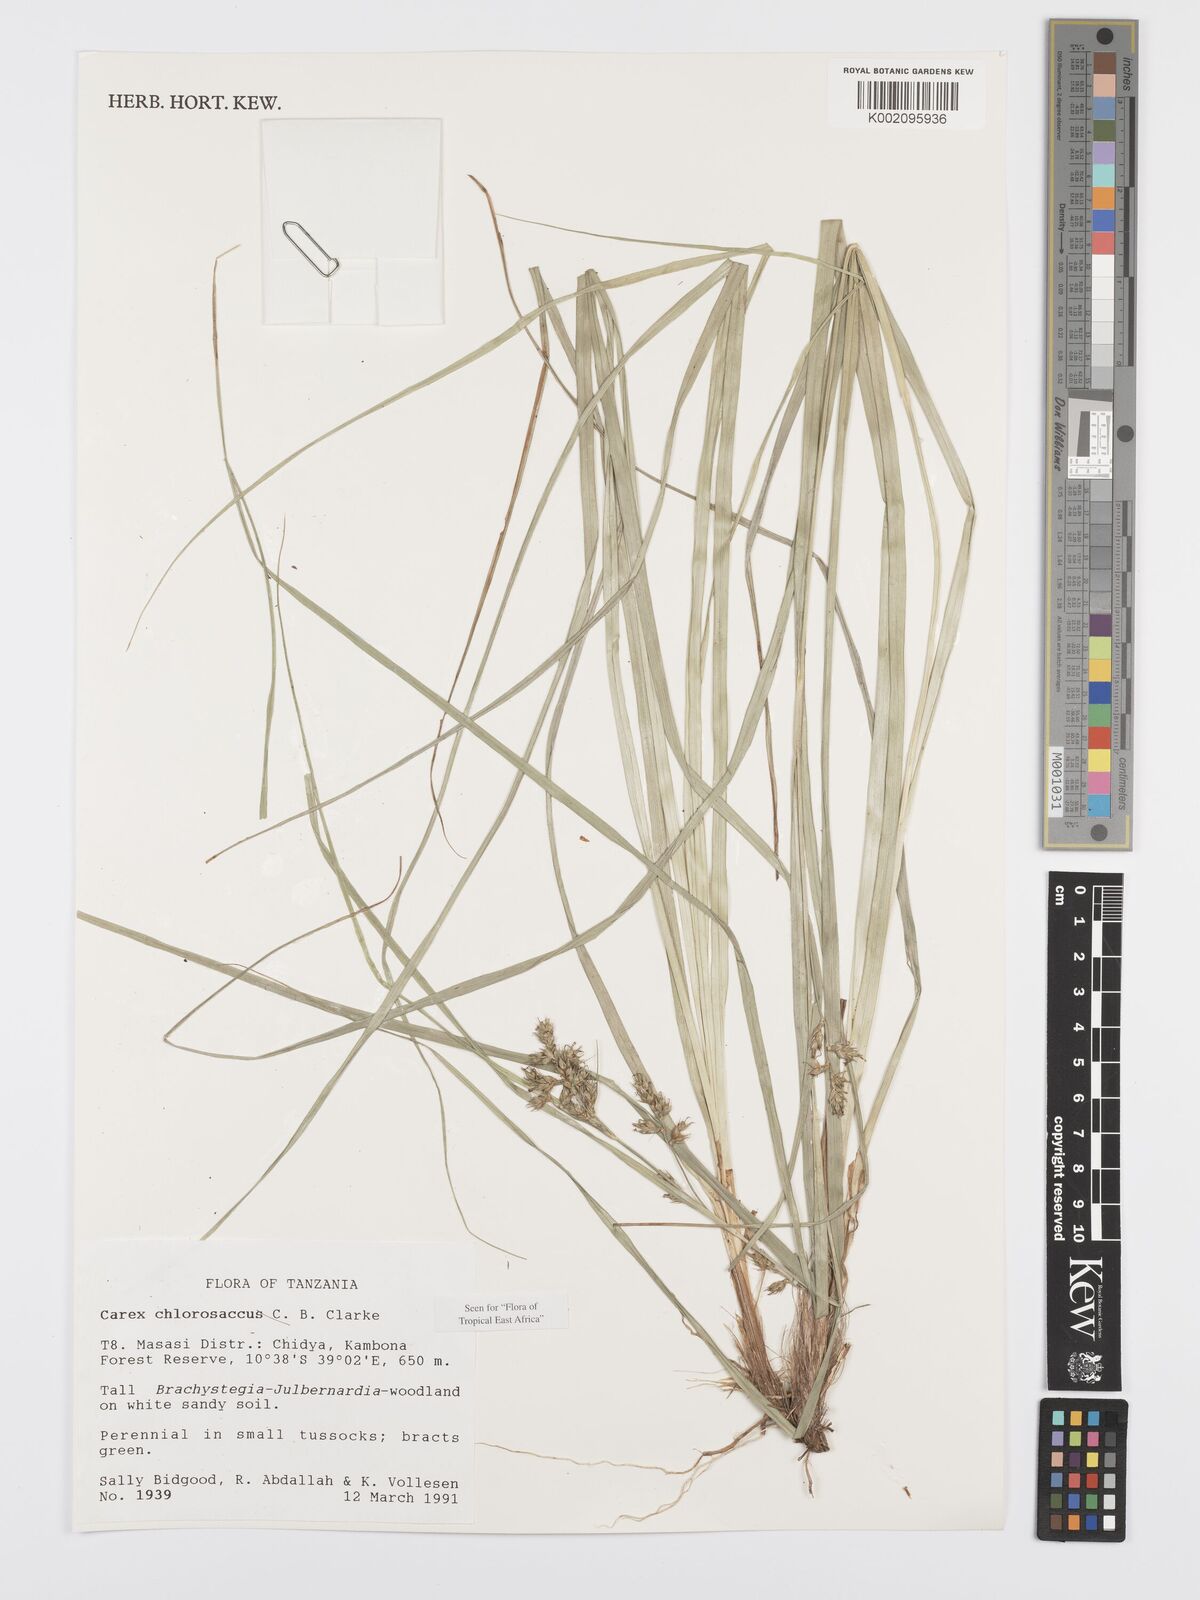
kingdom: Plantae
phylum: Tracheophyta
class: Liliopsida
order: Poales
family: Cyperaceae
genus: Carex
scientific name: Carex chlorosaccus
